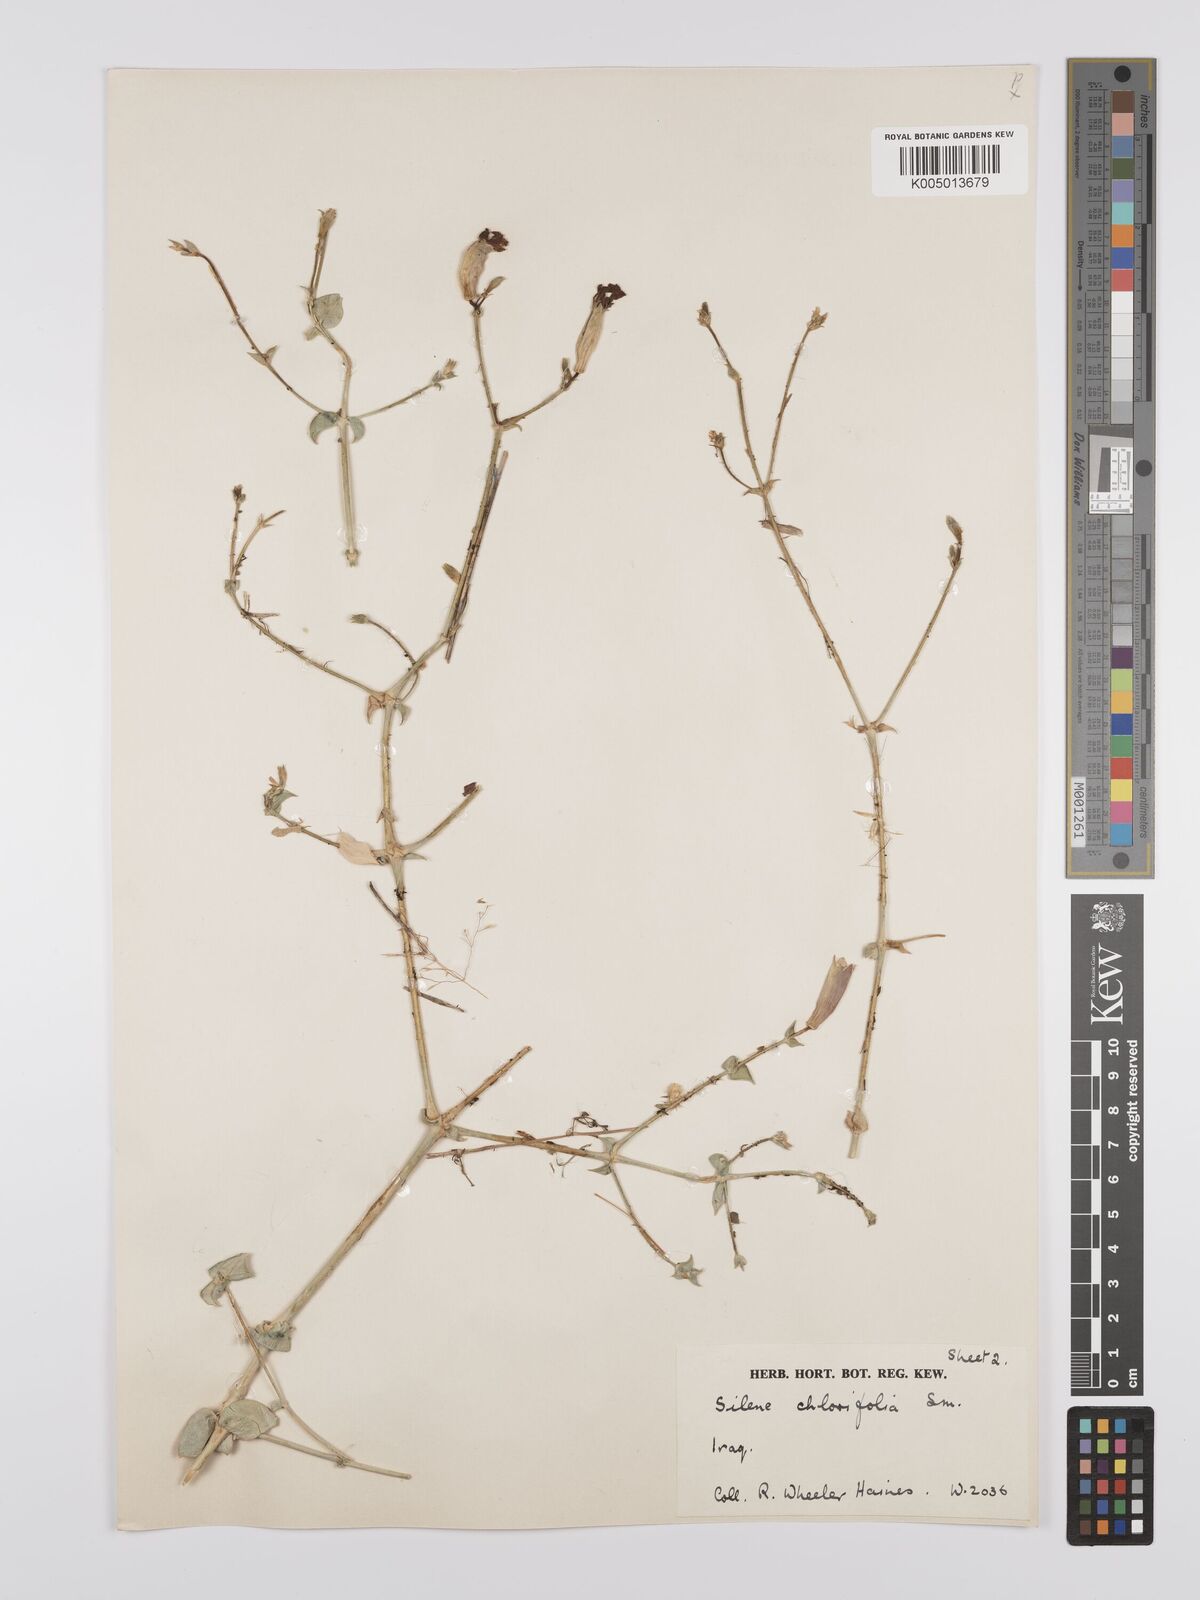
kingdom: Plantae
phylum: Tracheophyta
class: Magnoliopsida
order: Caryophyllales
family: Caryophyllaceae
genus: Silene
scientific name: Silene chlorifolia
